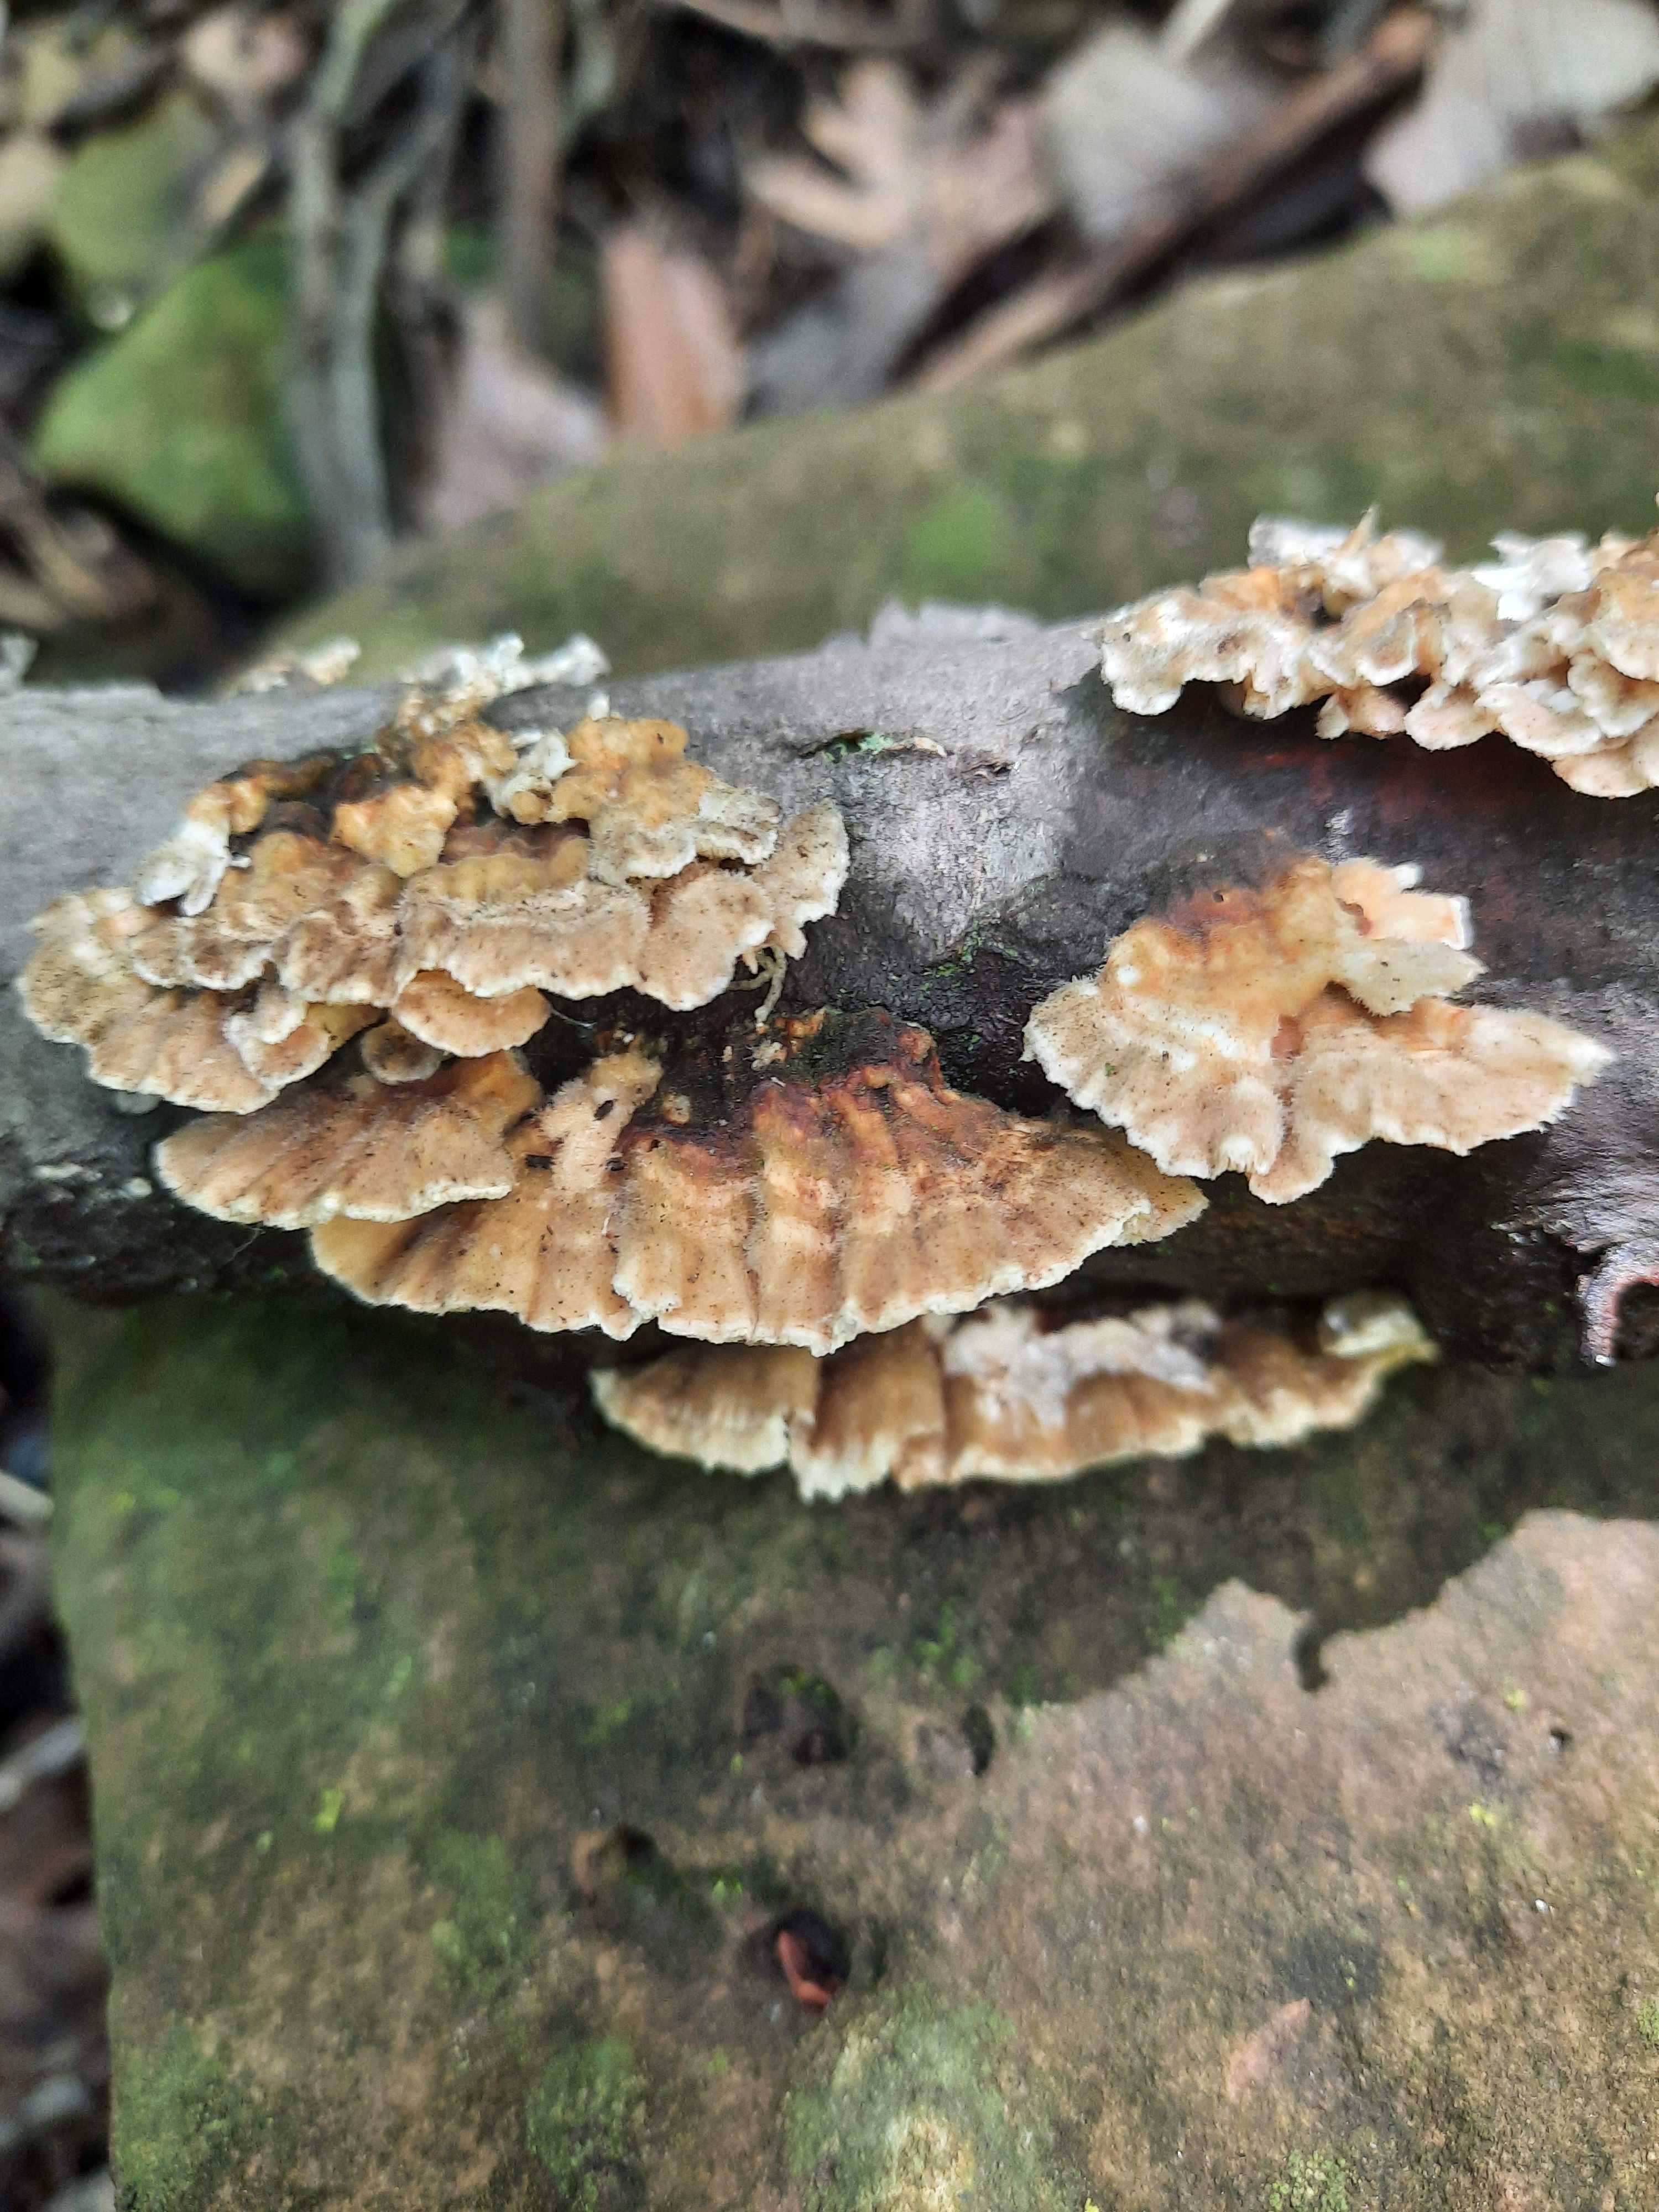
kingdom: Fungi
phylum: Basidiomycota
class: Agaricomycetes
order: Polyporales
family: Polyporaceae
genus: Trametes
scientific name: Trametes ochracea
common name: bæltet læderporesvamp
